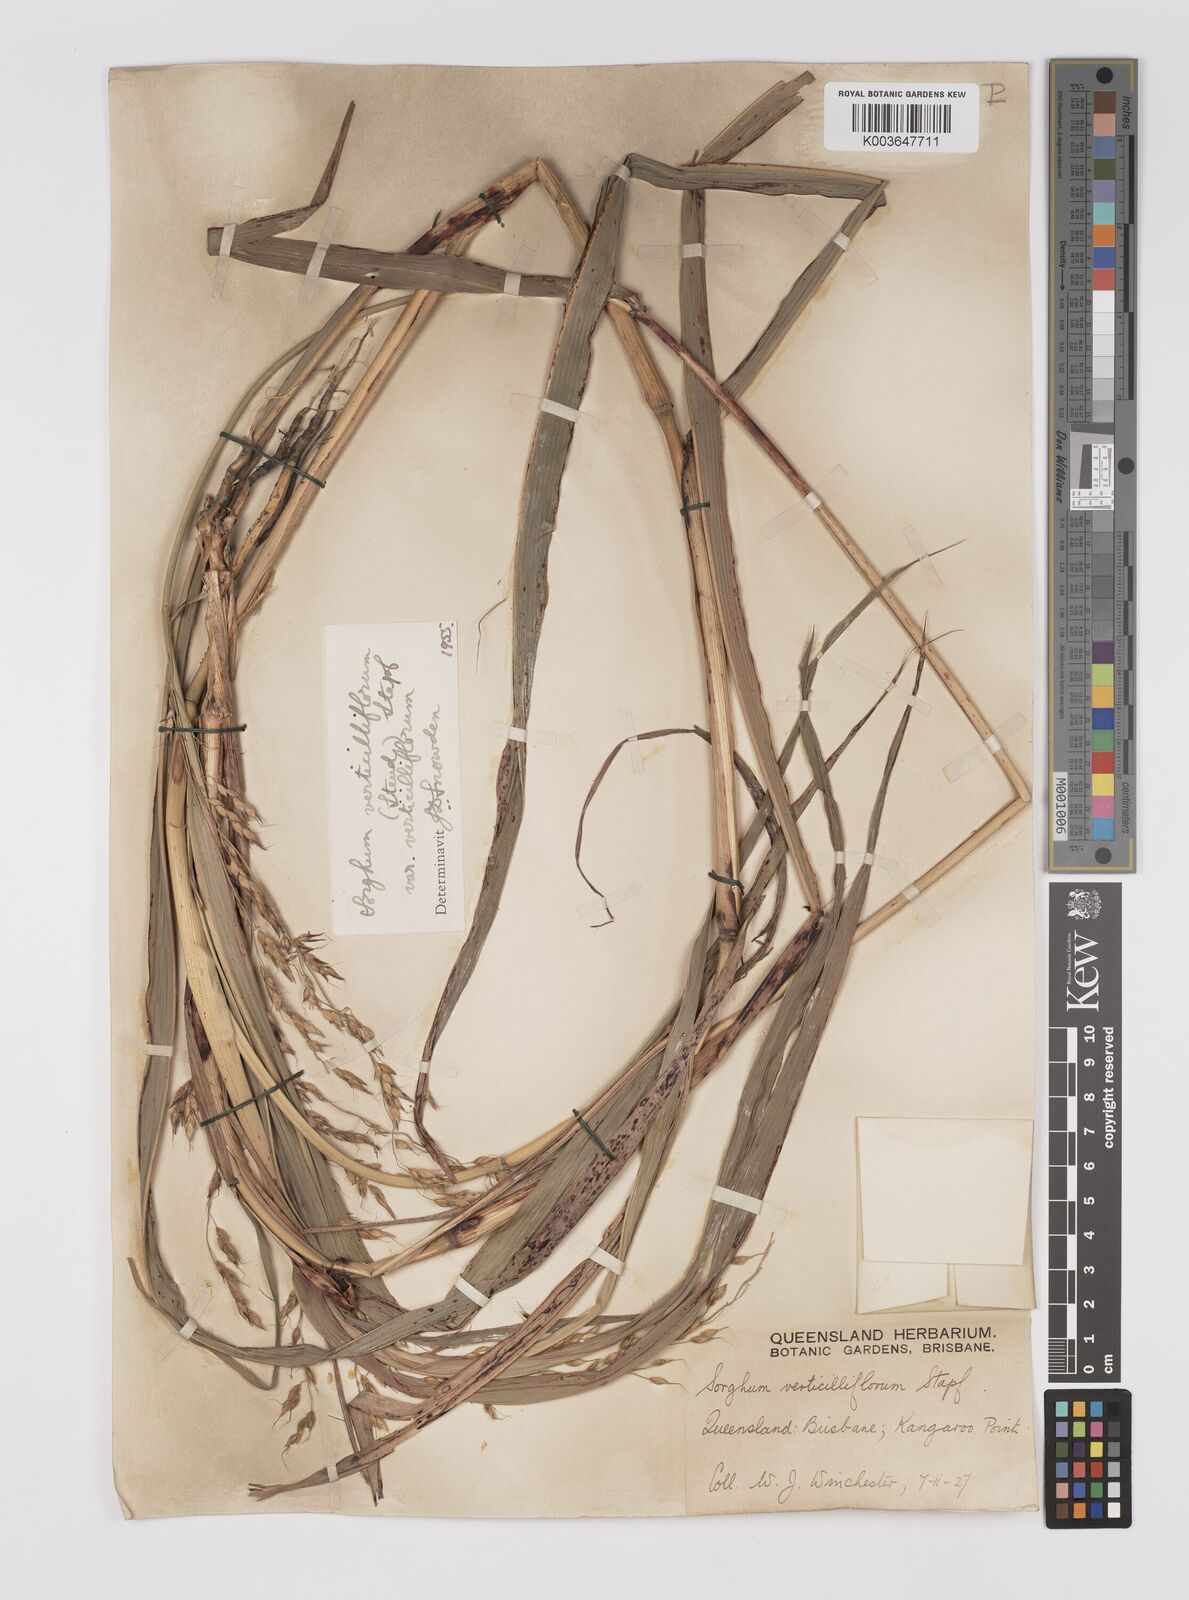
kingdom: Plantae
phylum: Tracheophyta
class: Liliopsida
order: Poales
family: Poaceae
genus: Sorghum
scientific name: Sorghum arundinaceum
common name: Sorghum
